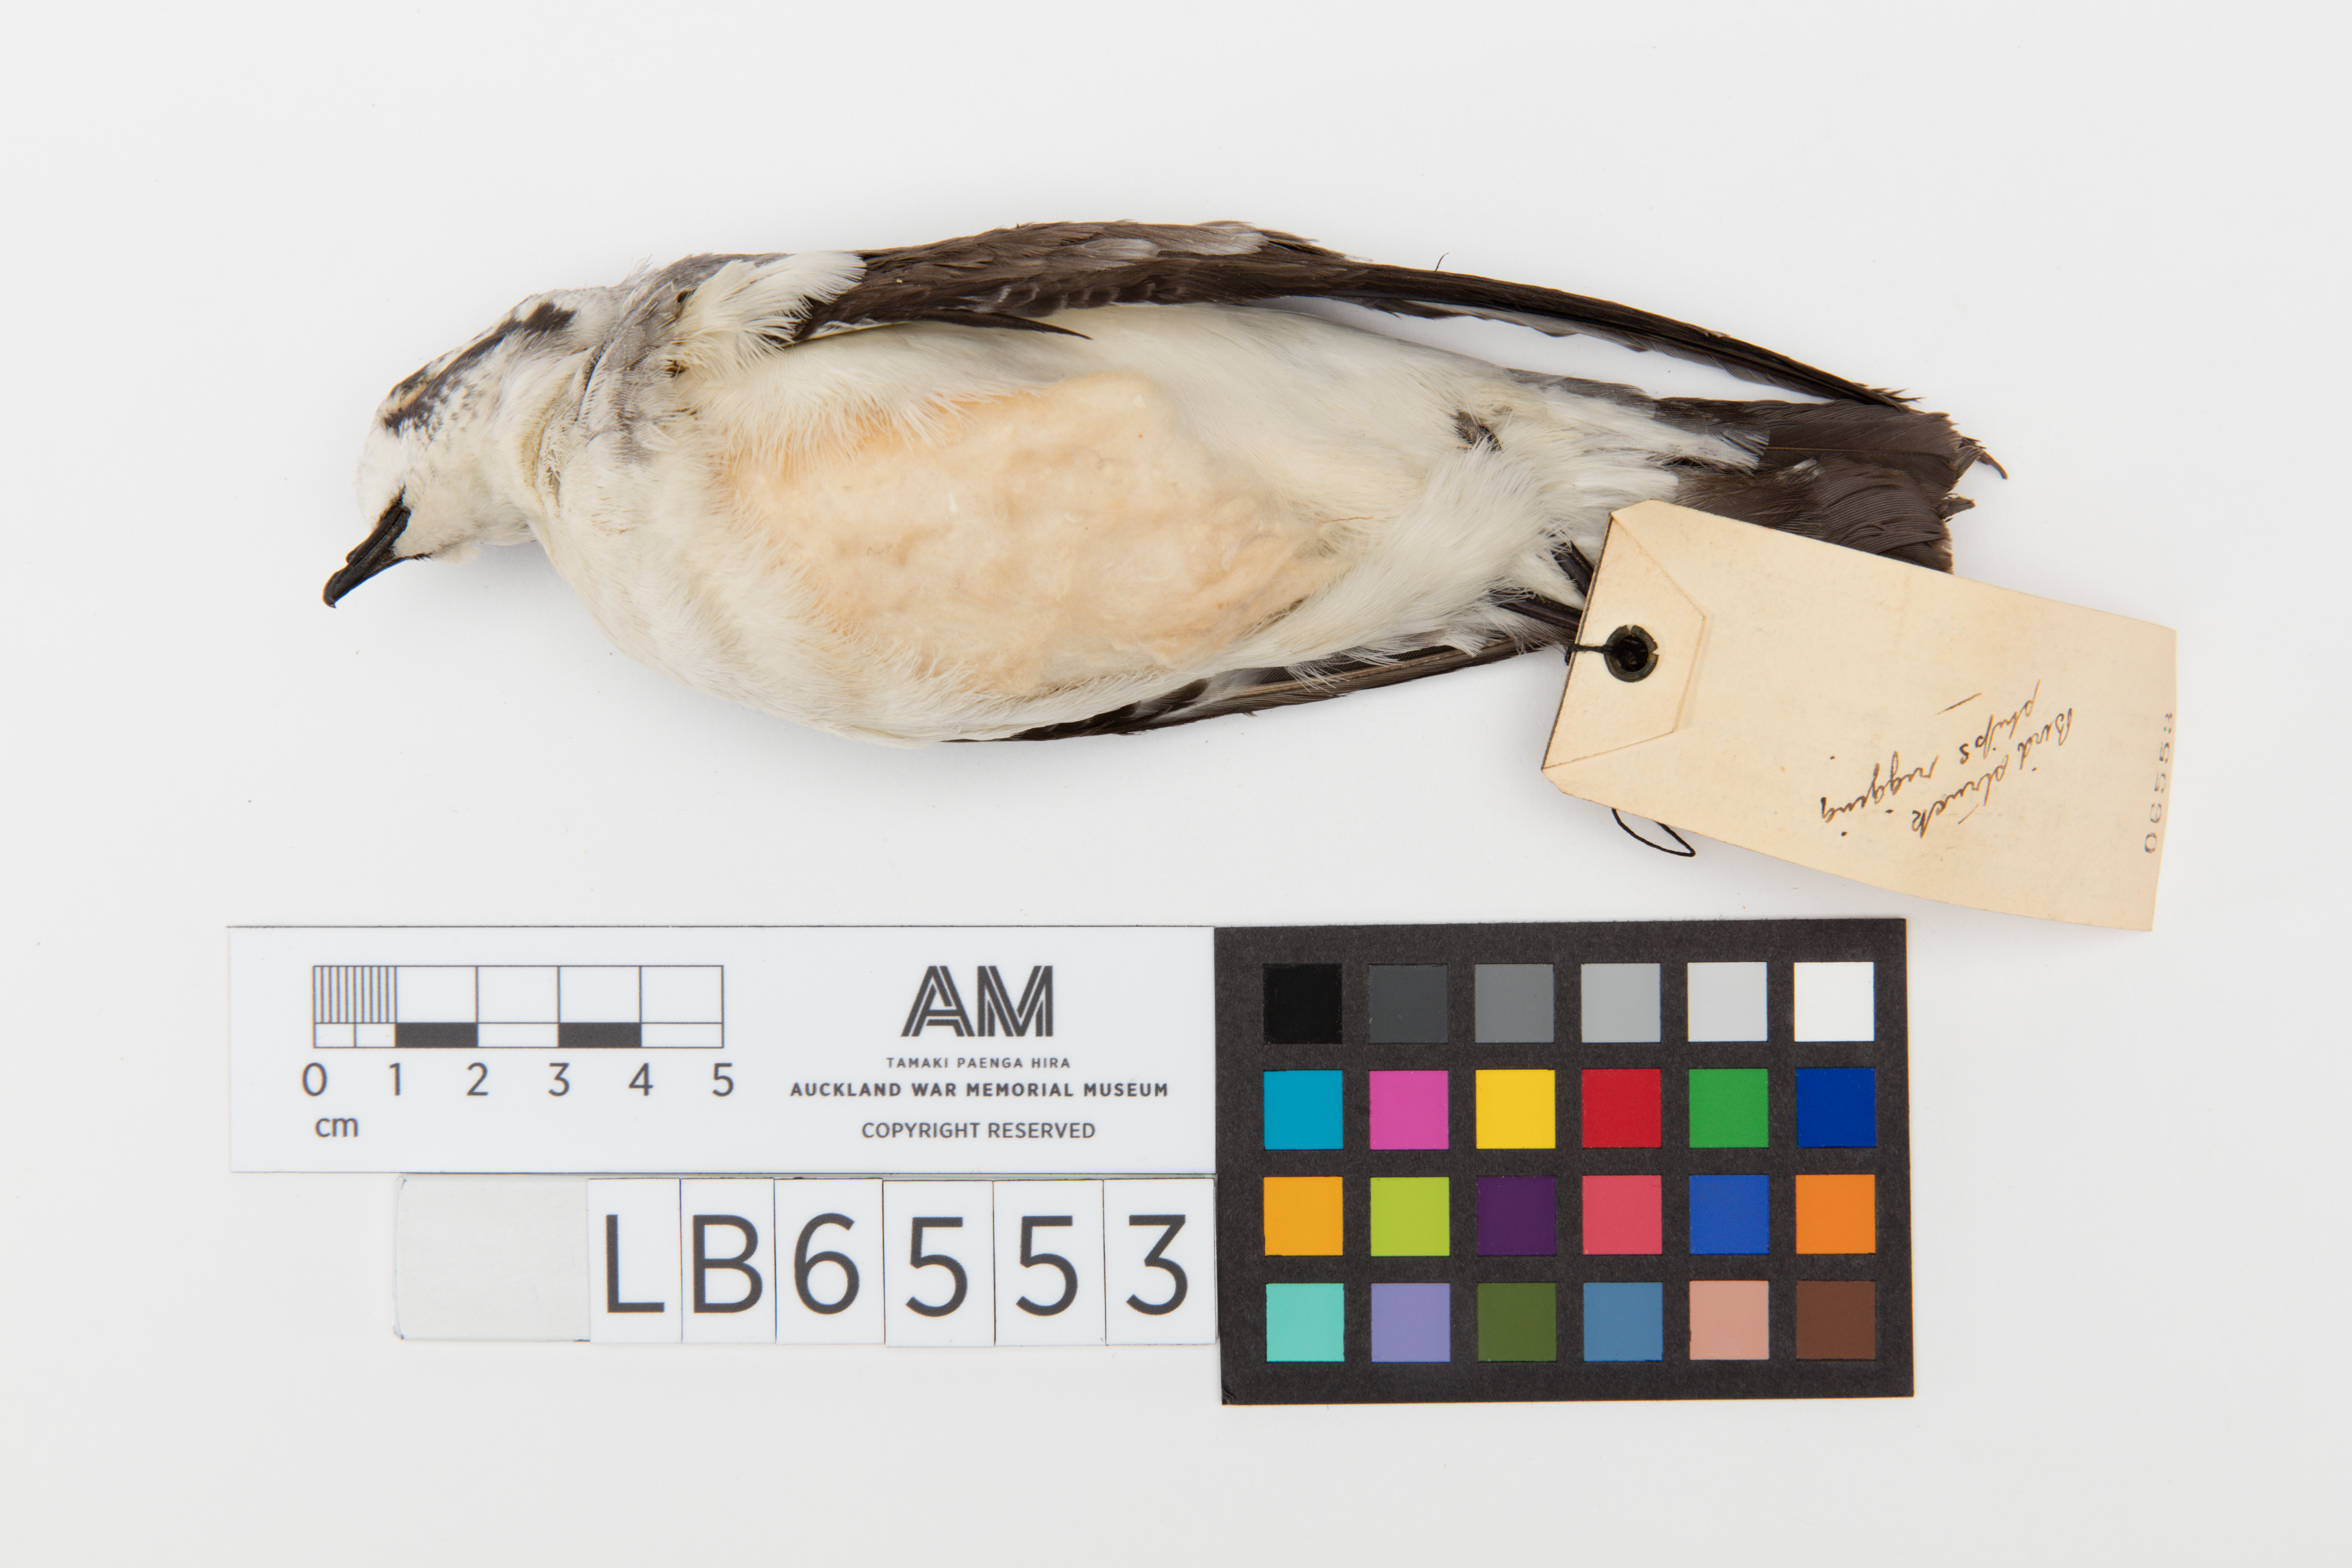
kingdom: Animalia
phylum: Chordata
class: Aves
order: Procellariiformes
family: Hydrobatidae
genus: Pelagodroma
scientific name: Pelagodroma marina
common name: White-faced storm-petrel
